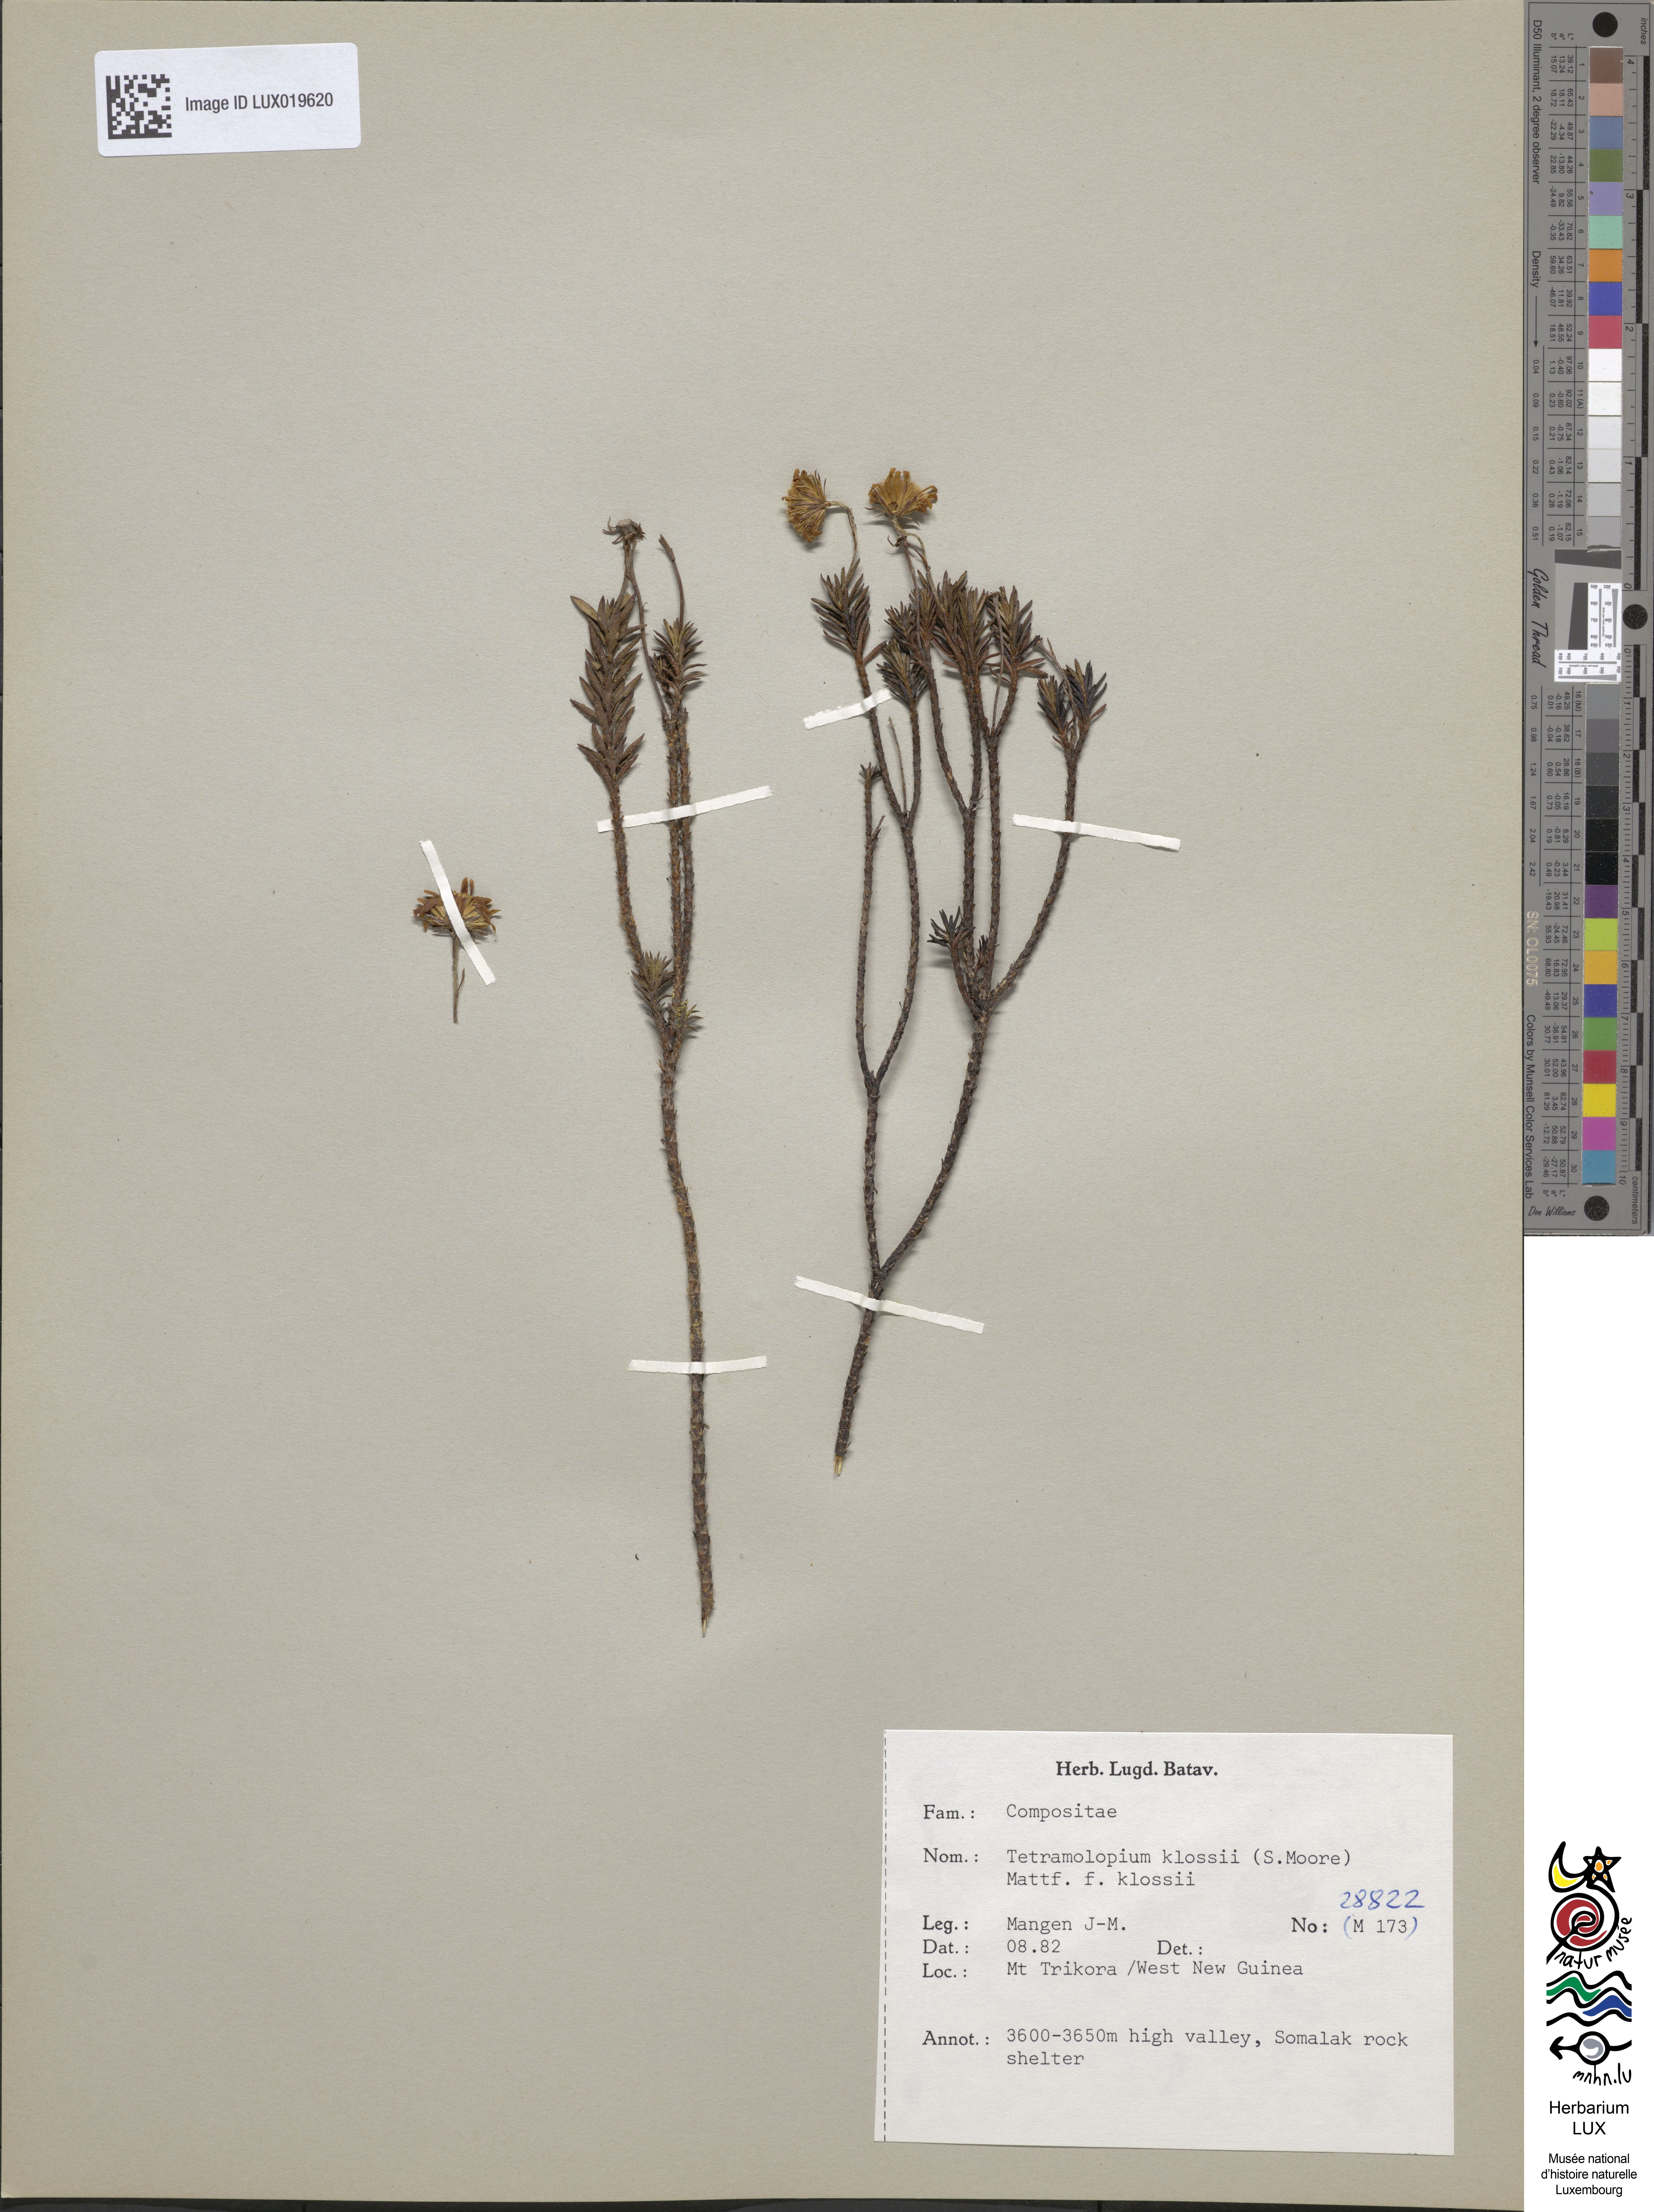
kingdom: Plantae
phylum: Tracheophyta
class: Magnoliopsida
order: Asterales
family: Asteraceae
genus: Tetramolopium
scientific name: Tetramolopium klossii
